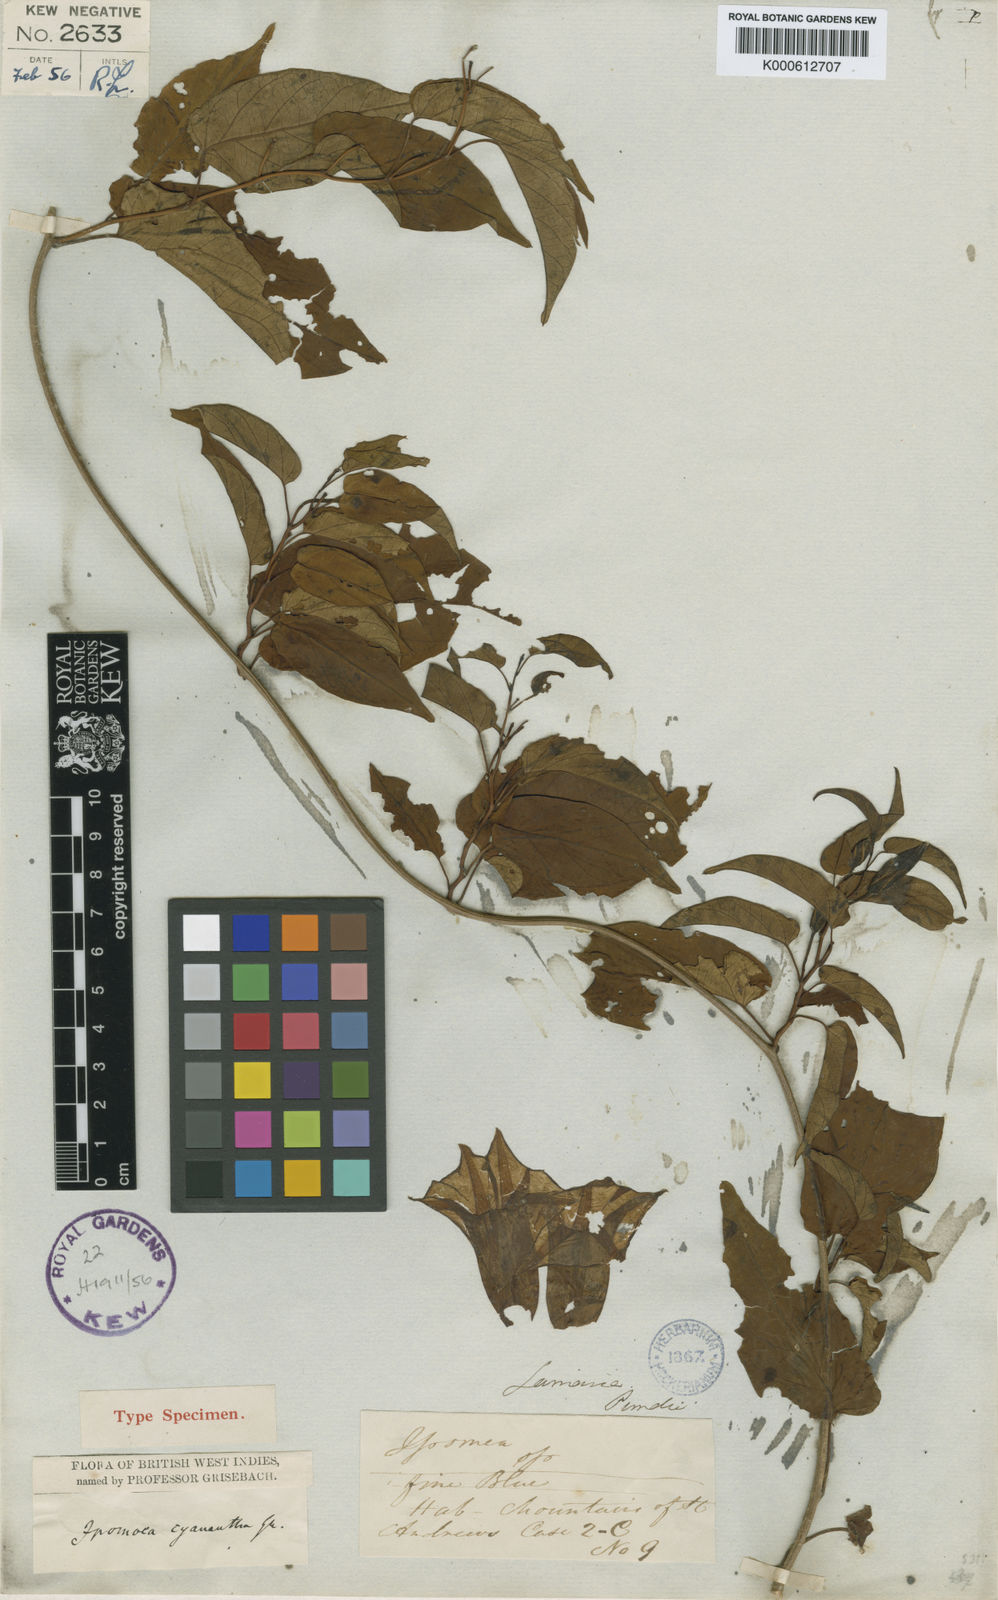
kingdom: Plantae
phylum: Tracheophyta
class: Magnoliopsida
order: Solanales
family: Convolvulaceae
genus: Ipomoea
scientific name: Ipomoea lindenii
